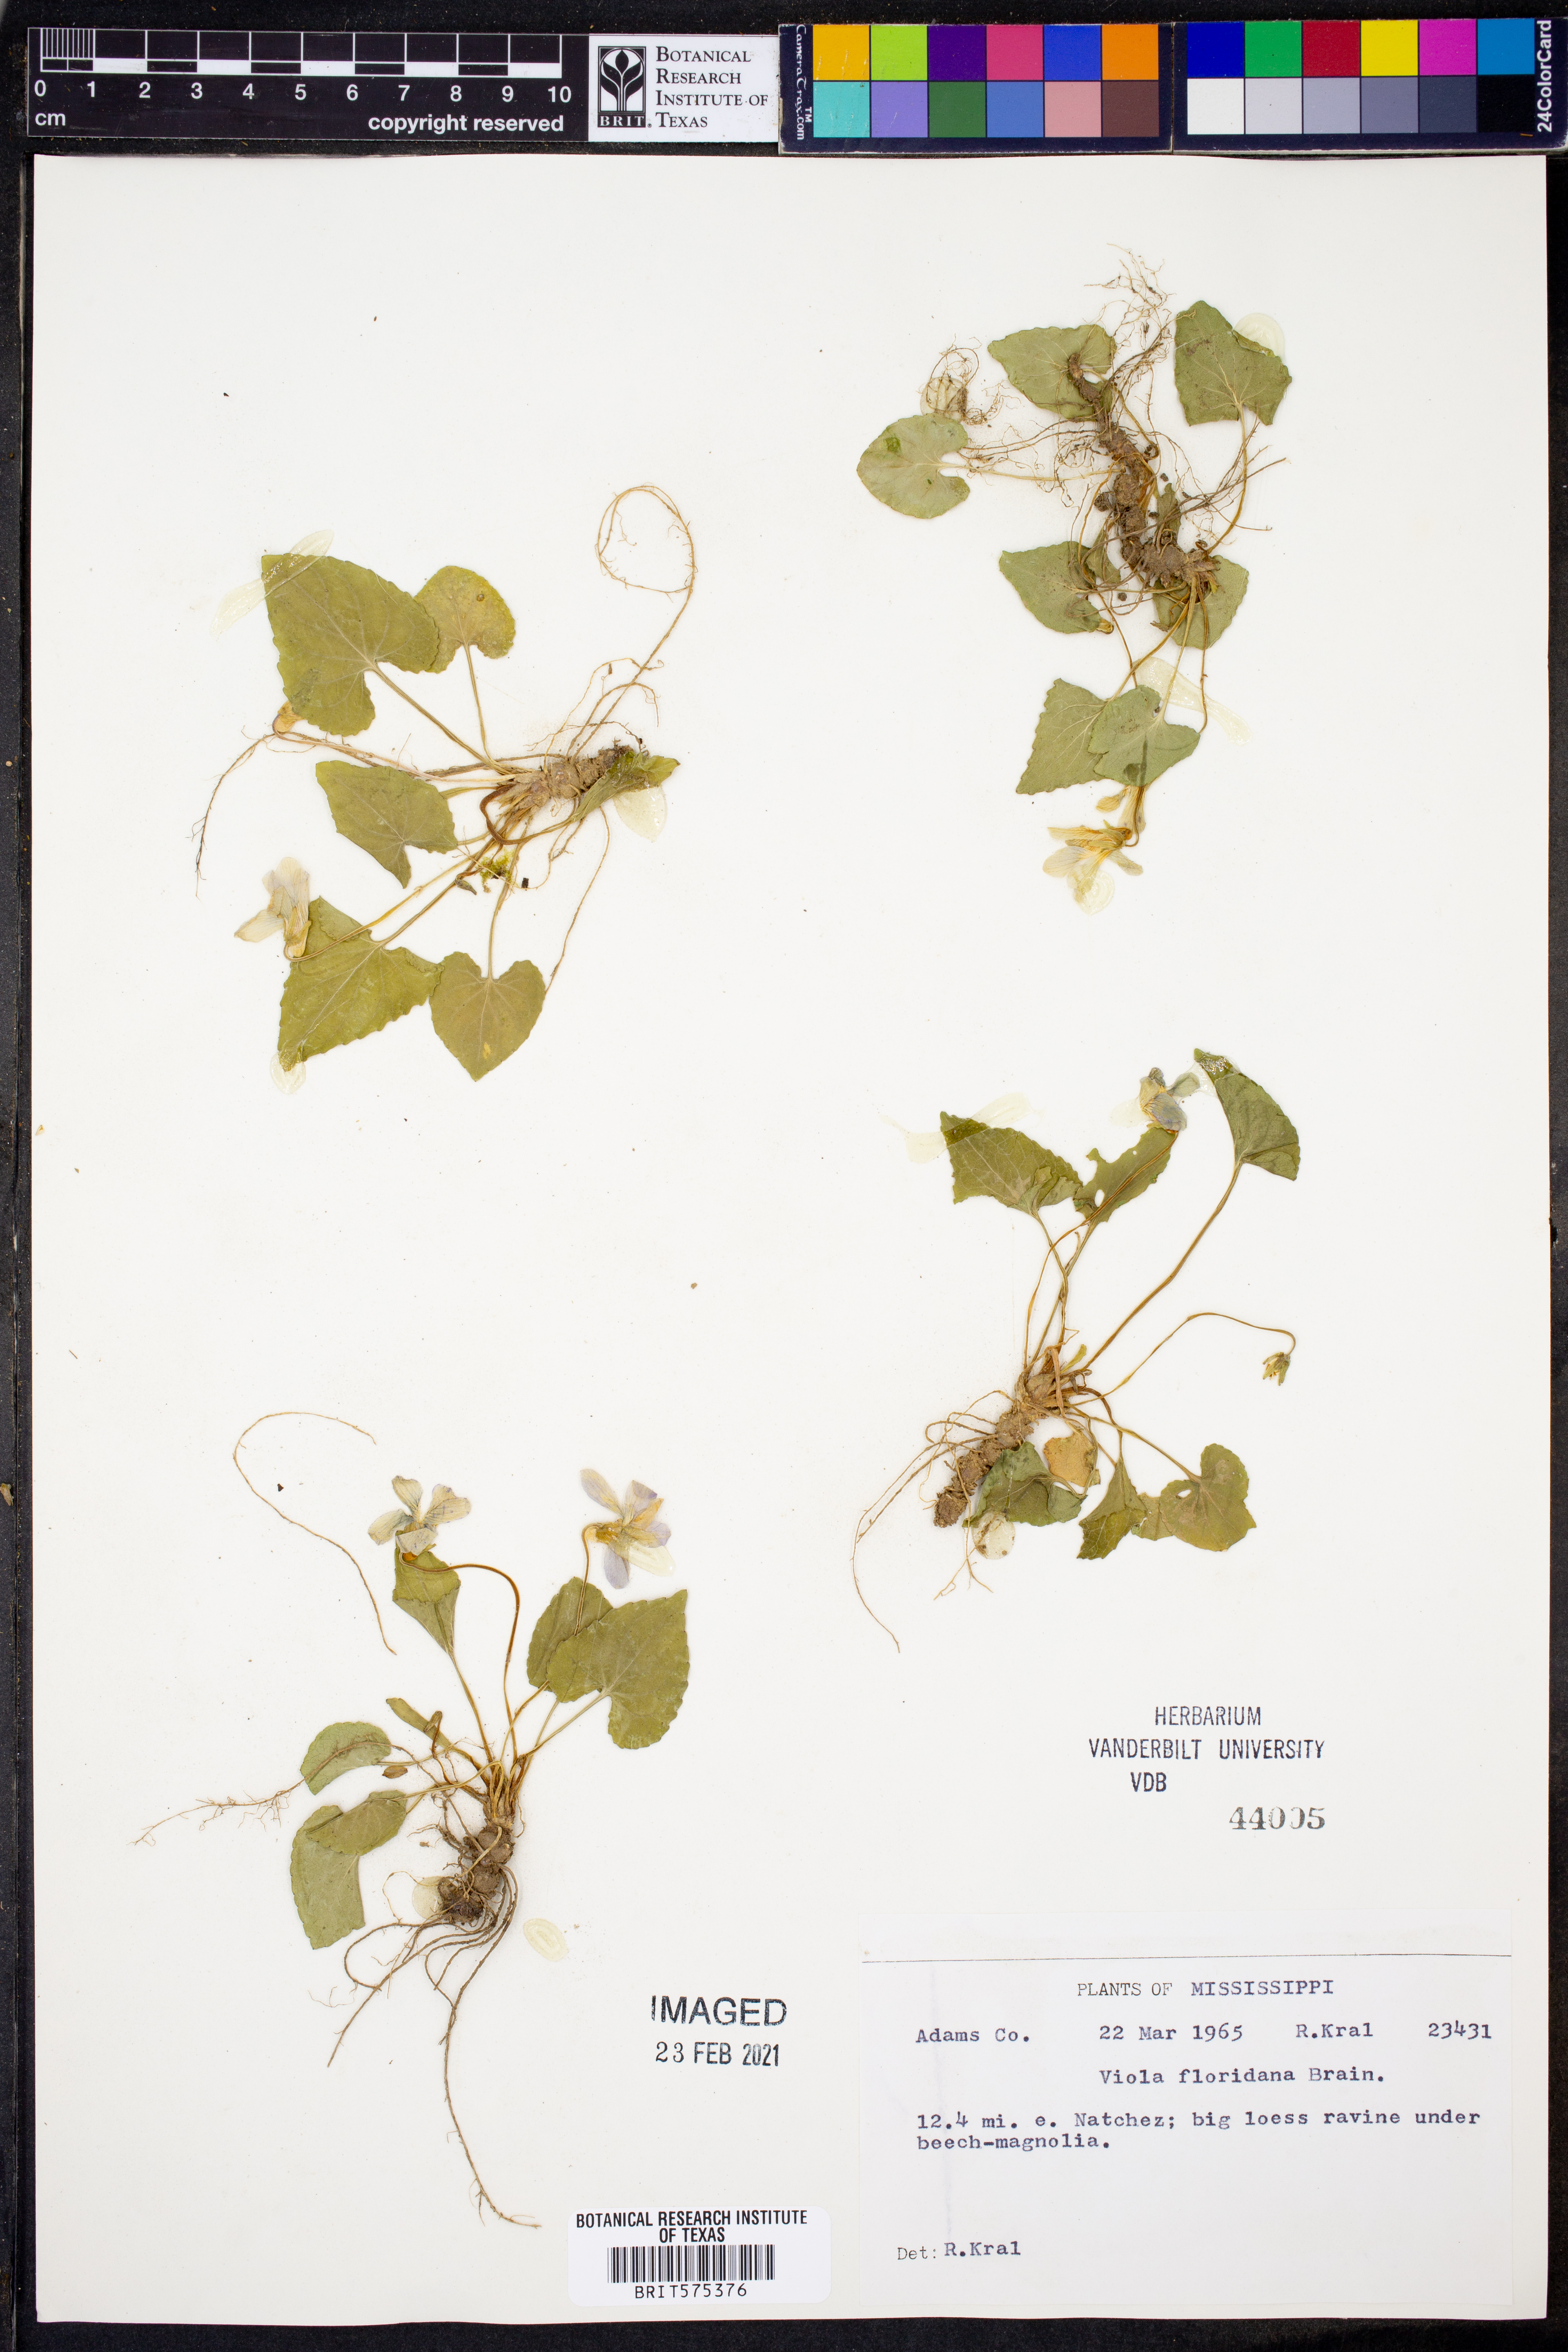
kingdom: Plantae
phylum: Tracheophyta
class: Magnoliopsida
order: Malpighiales
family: Violaceae
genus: Viola
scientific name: Viola floridana
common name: Florida violet
